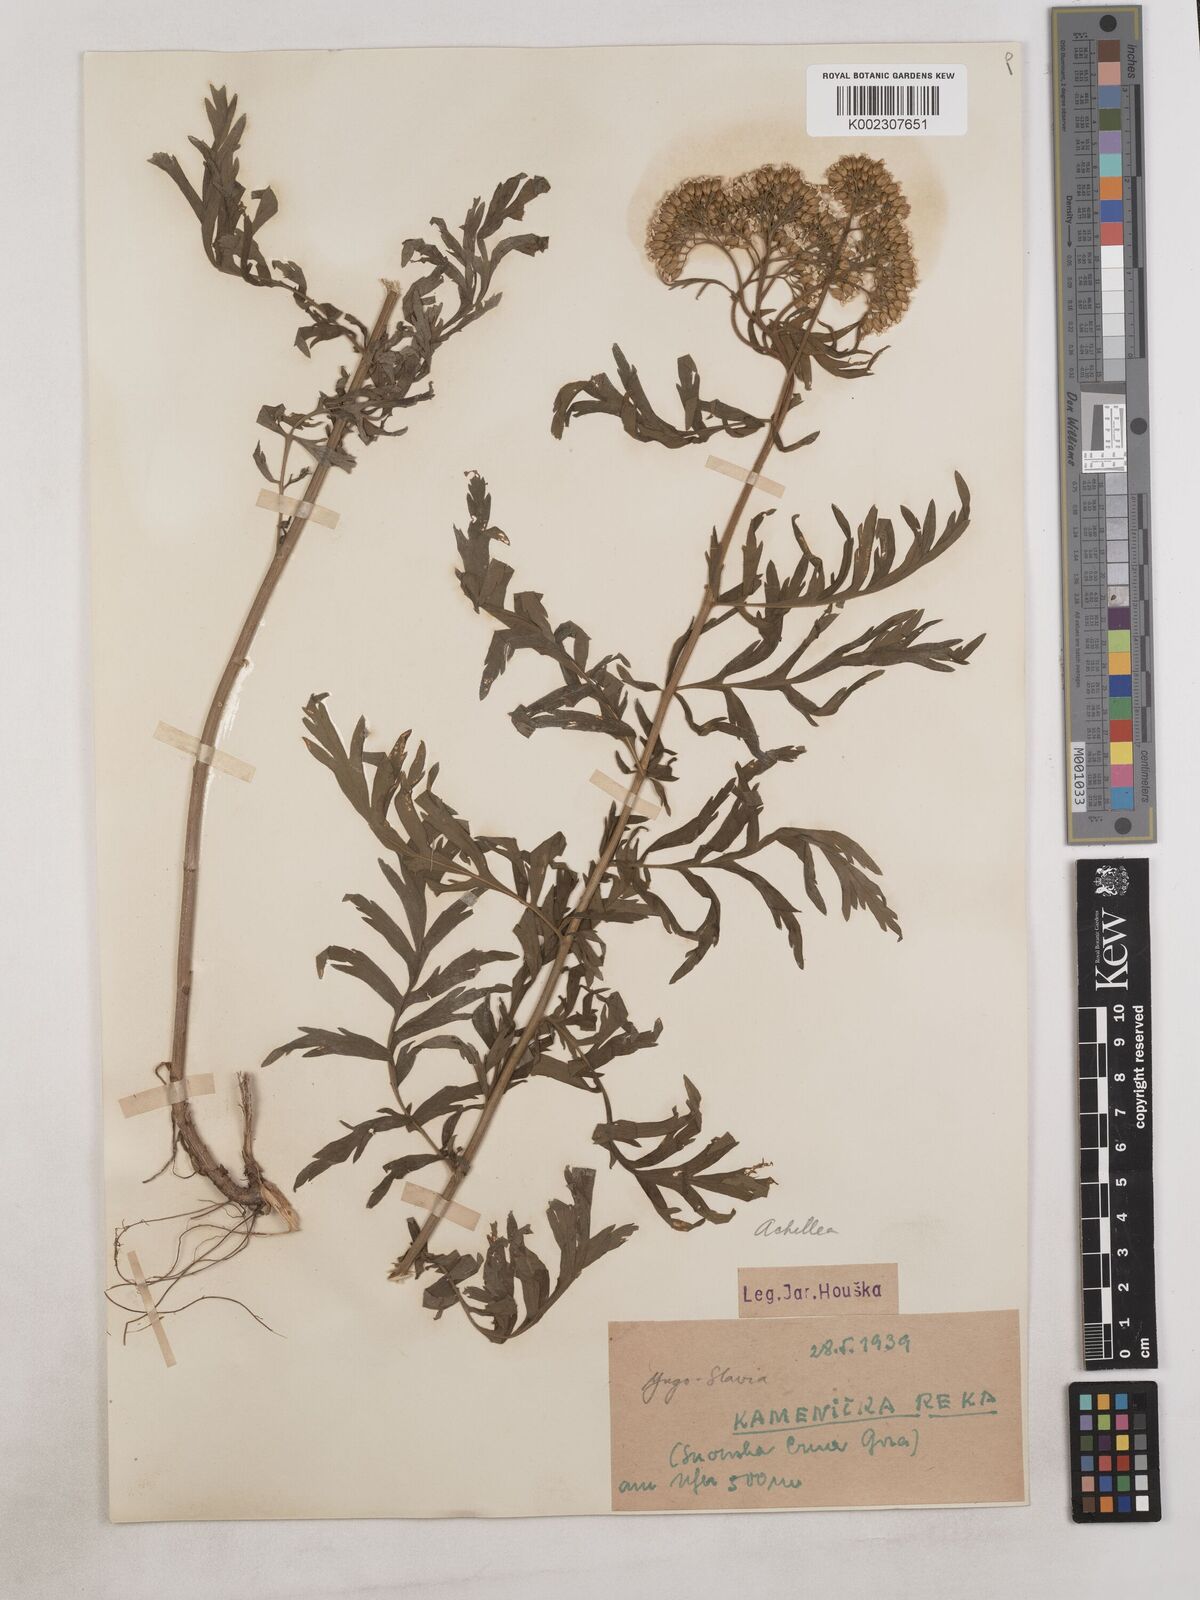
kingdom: Plantae
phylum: Tracheophyta
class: Magnoliopsida
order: Asterales
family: Asteraceae
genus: Achillea
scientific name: Achillea
